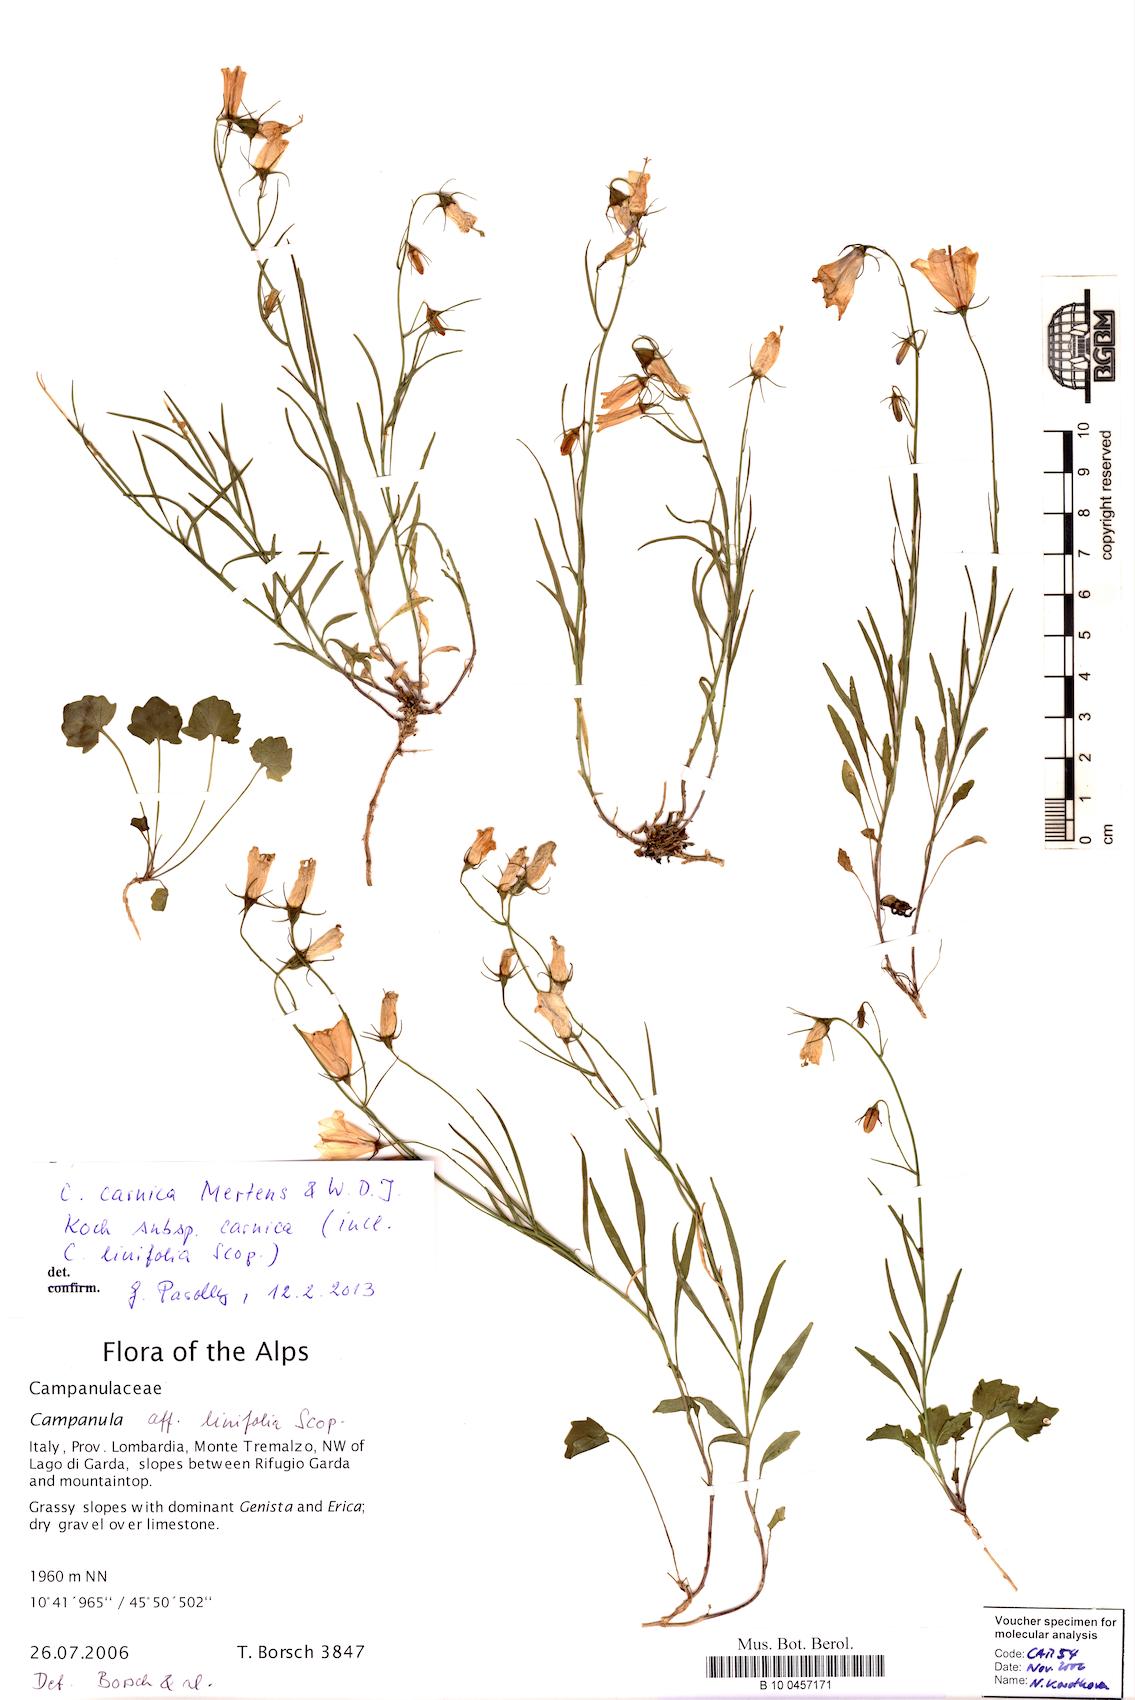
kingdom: Plantae
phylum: Tracheophyta
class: Magnoliopsida
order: Asterales
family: Campanulaceae
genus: Campanula
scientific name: Campanula carnica
